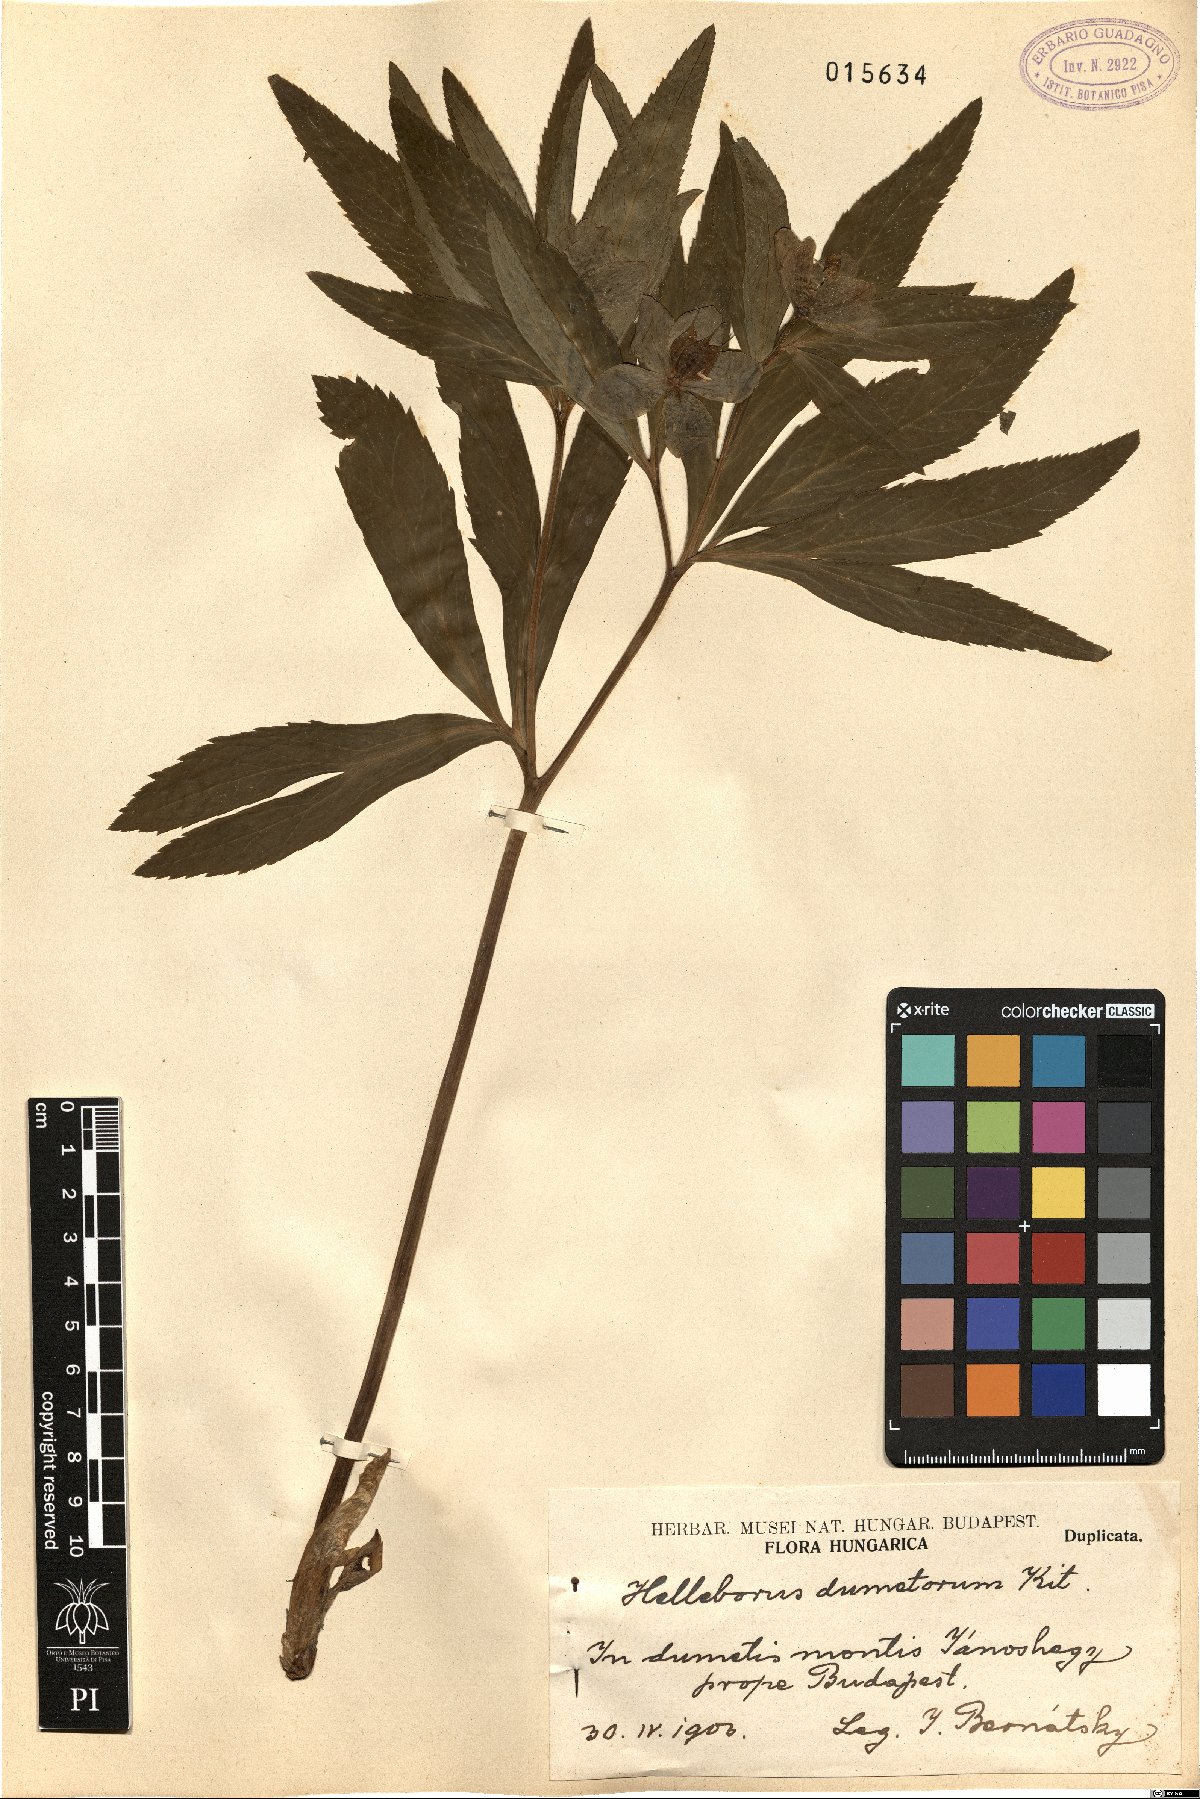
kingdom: Plantae
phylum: Tracheophyta
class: Magnoliopsida
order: Ranunculales
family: Ranunculaceae
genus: Helleborus
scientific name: Helleborus dumetorum
